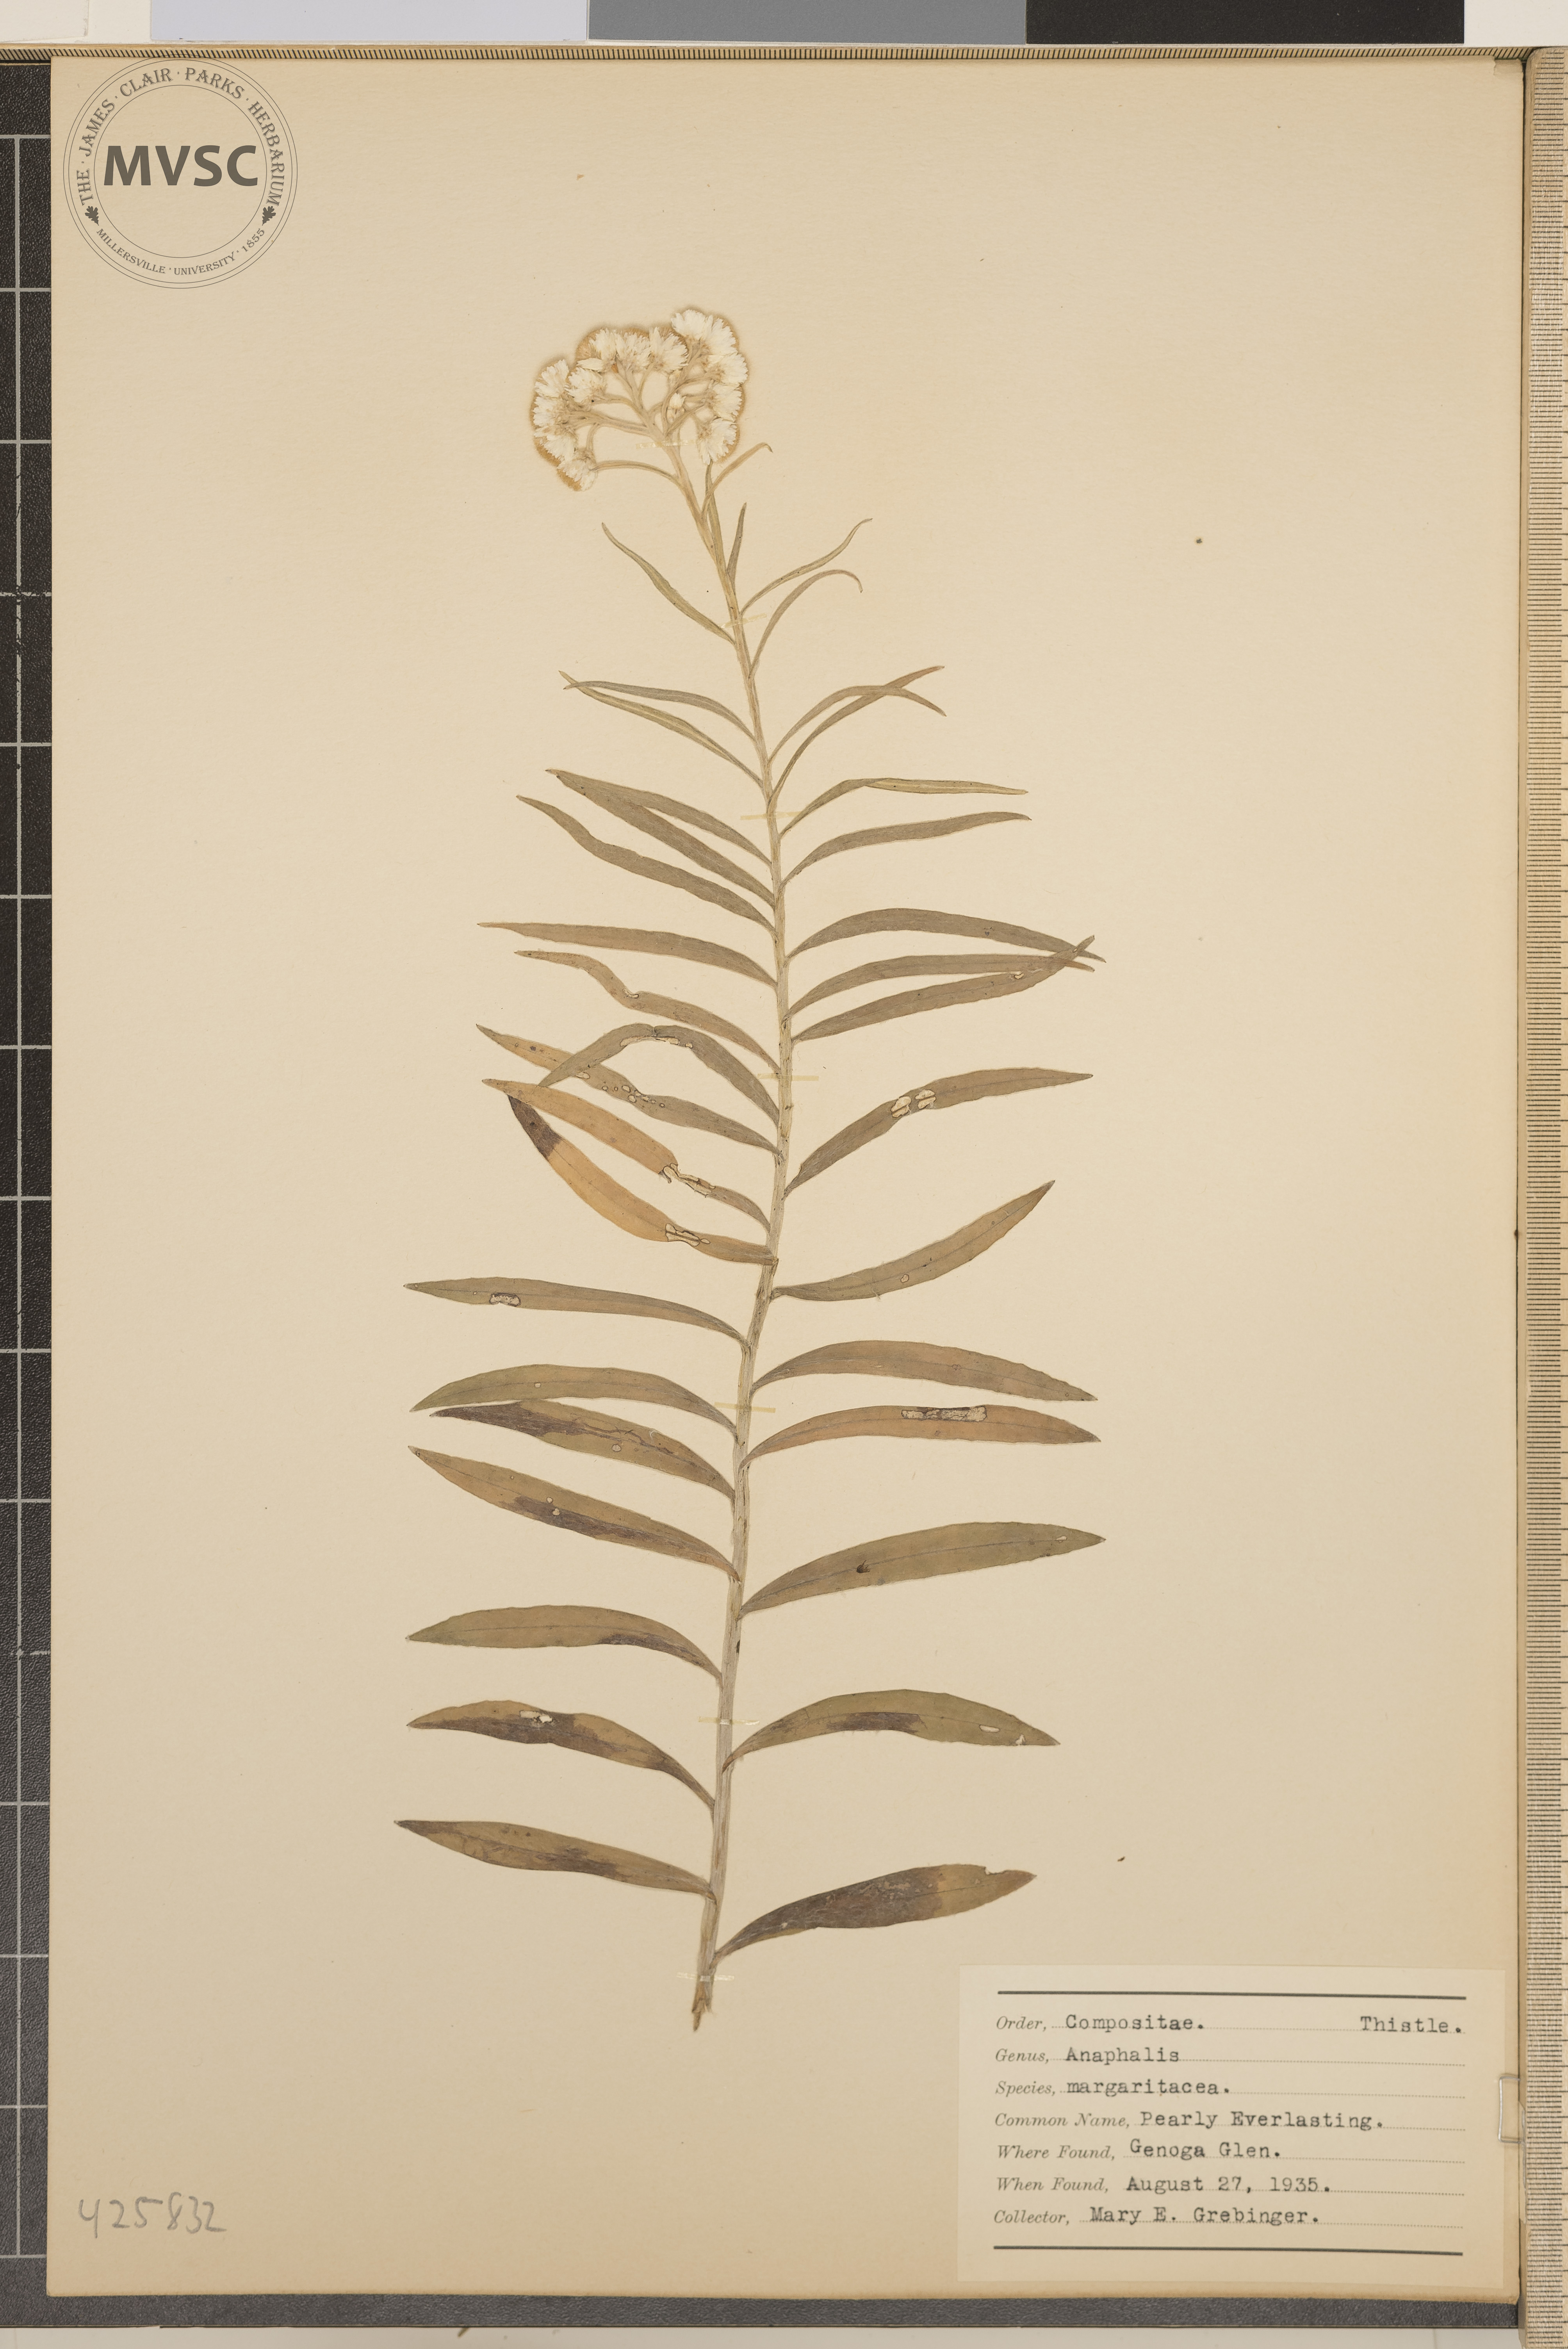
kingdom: Plantae
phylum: Tracheophyta
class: Magnoliopsida
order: Asterales
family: Asteraceae
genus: Anaphalis
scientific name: Anaphalis margaritacea
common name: Pearly Everlasting
